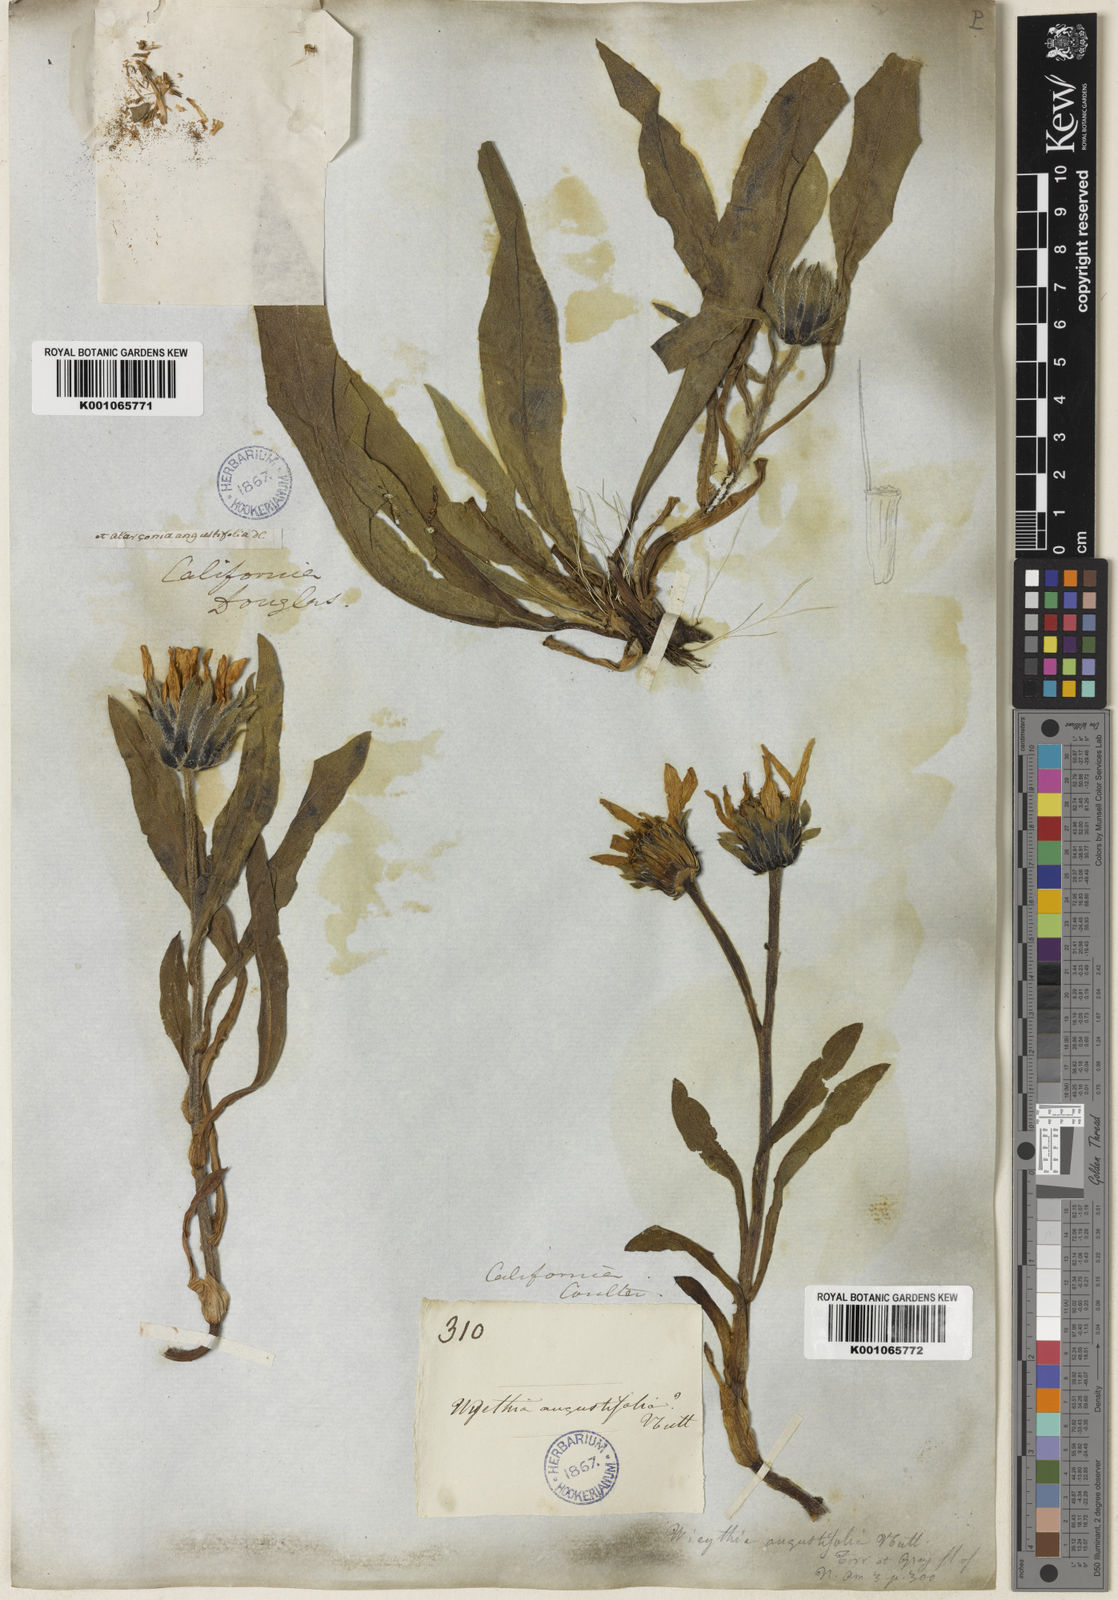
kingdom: Plantae
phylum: Tracheophyta
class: Magnoliopsida
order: Asterales
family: Asteraceae
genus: Wyethia
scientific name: Wyethia angustifolia
